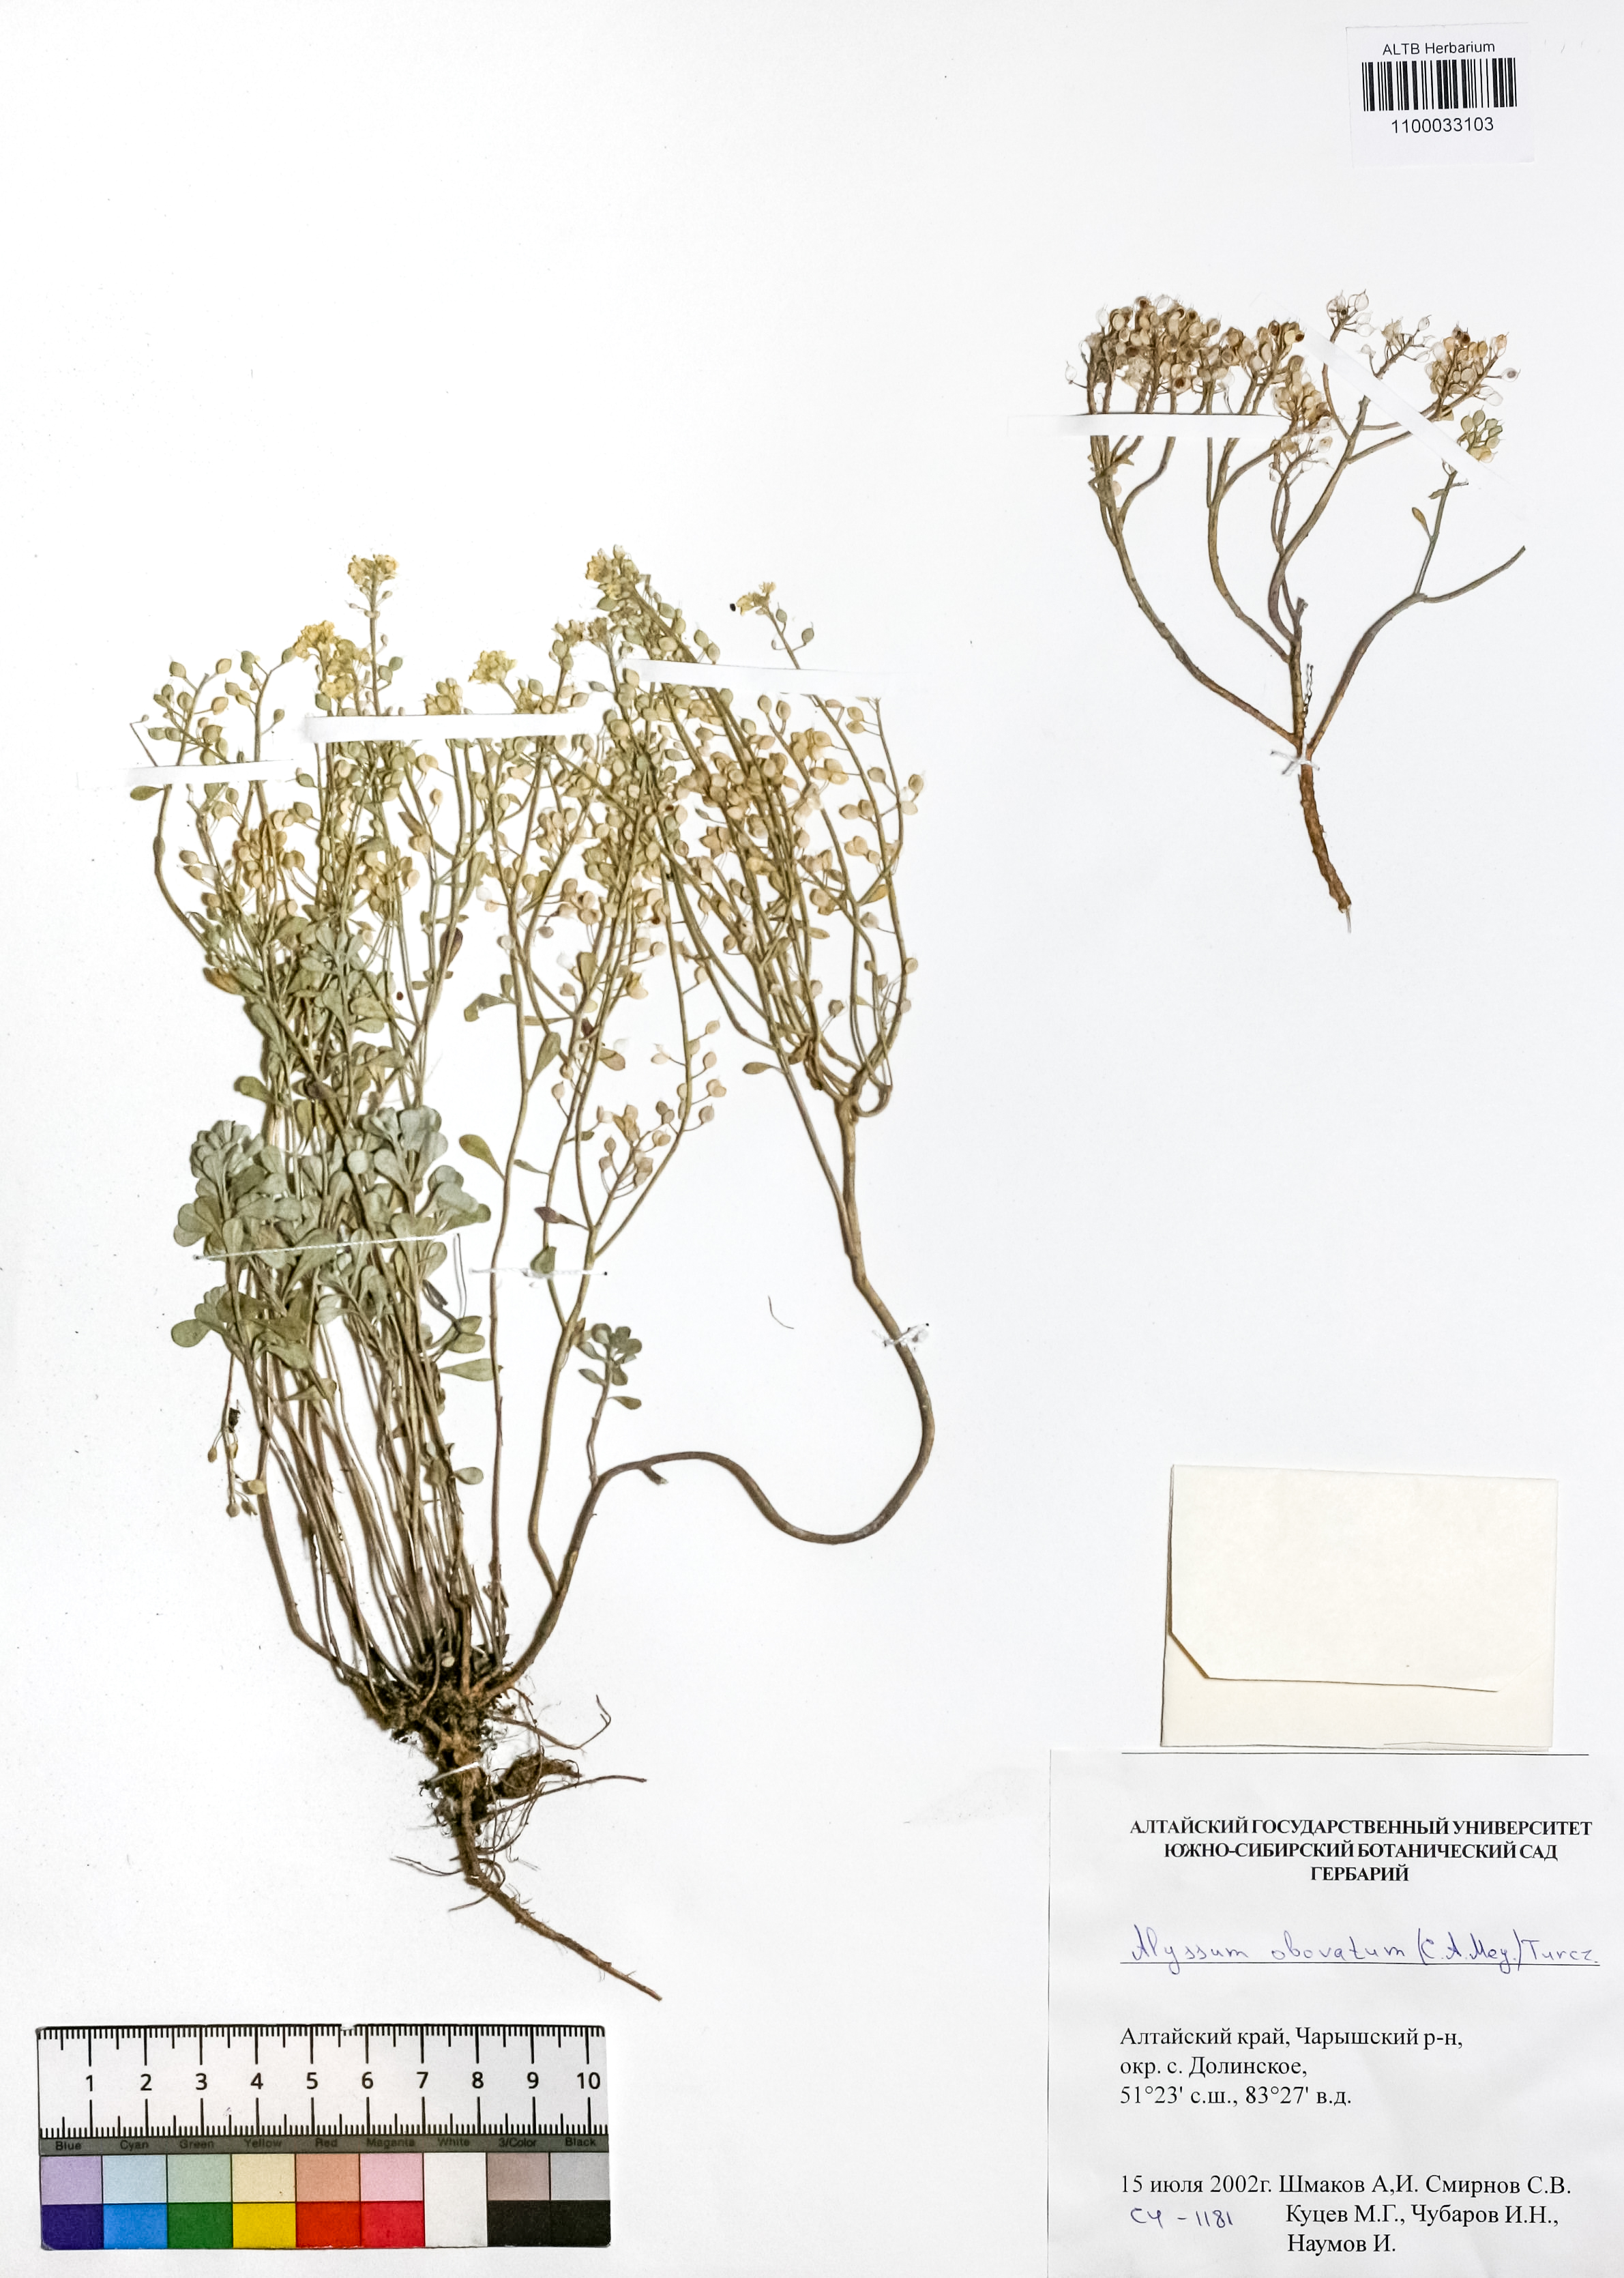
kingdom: Plantae
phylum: Tracheophyta
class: Magnoliopsida
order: Brassicales
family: Brassicaceae
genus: Odontarrhena
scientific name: Odontarrhena obovata
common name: American alyssum
